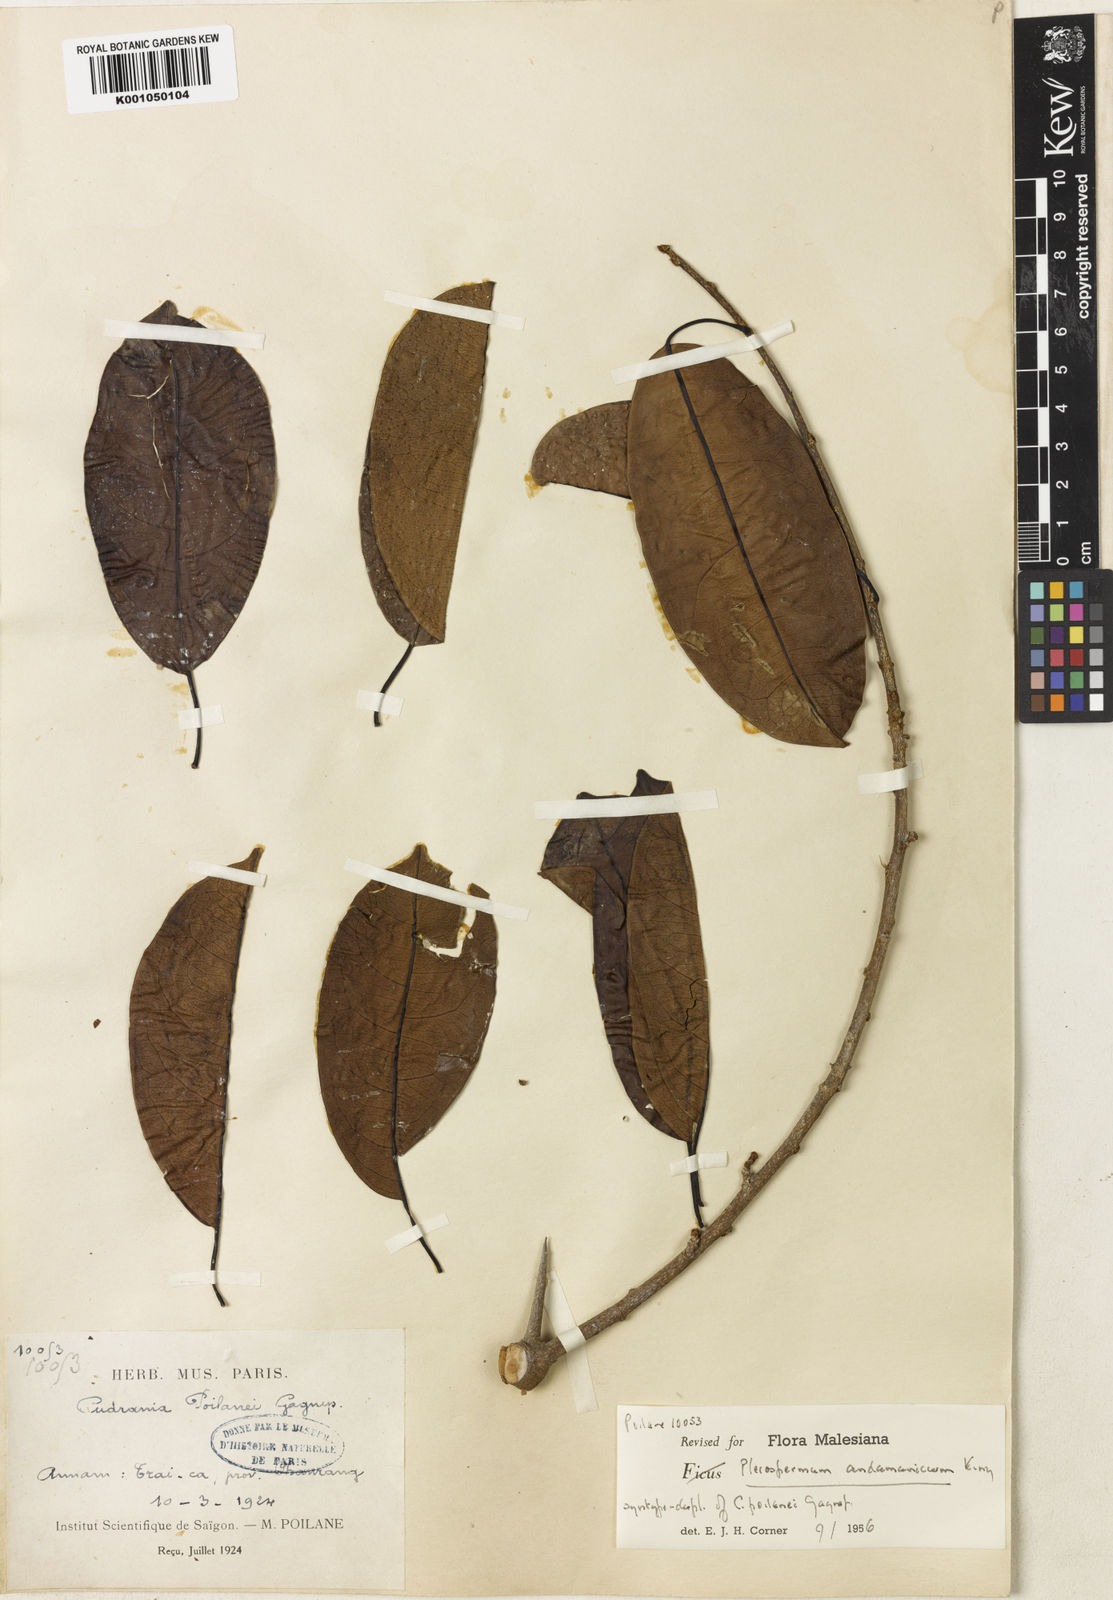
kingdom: Plantae
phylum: Tracheophyta
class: Magnoliopsida
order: Rosales
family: Moraceae
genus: Maclura
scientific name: Maclura andamanica
